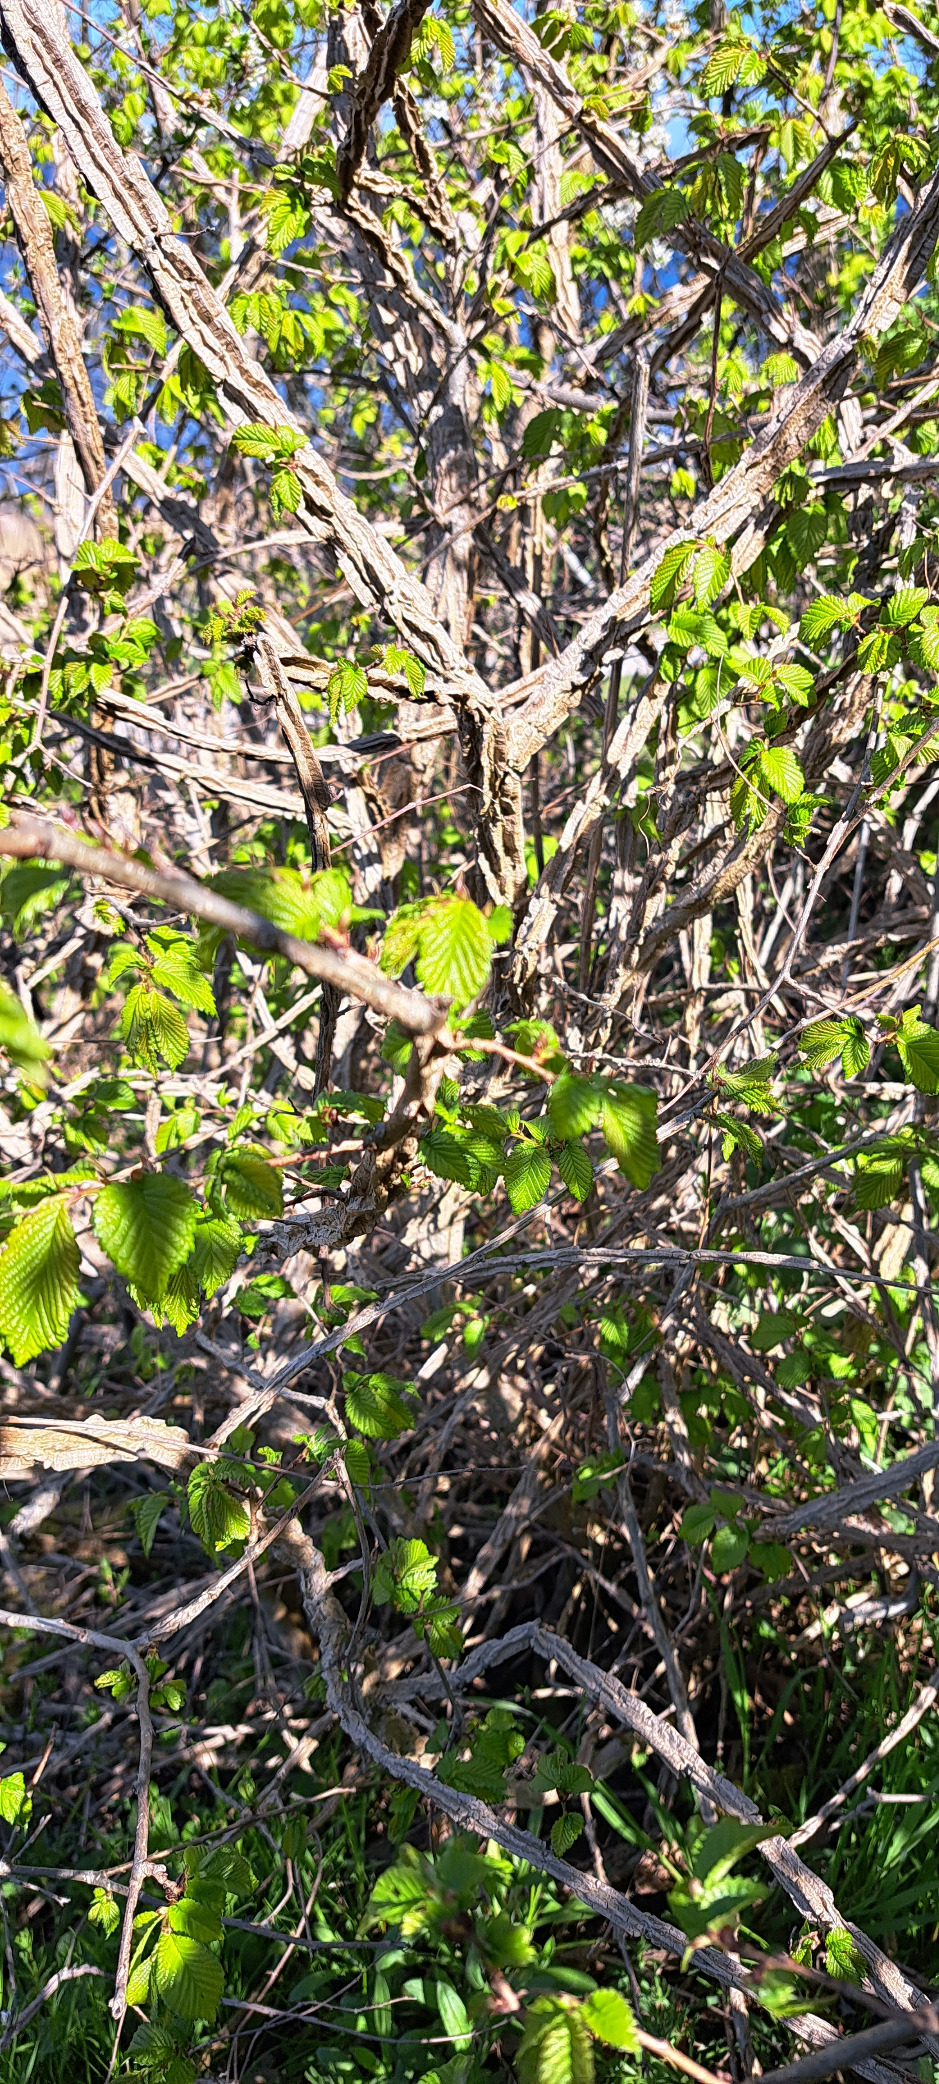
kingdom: Plantae
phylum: Tracheophyta
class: Magnoliopsida
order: Rosales
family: Ulmaceae
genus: Ulmus
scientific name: Ulmus minor
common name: Småbladet elm
